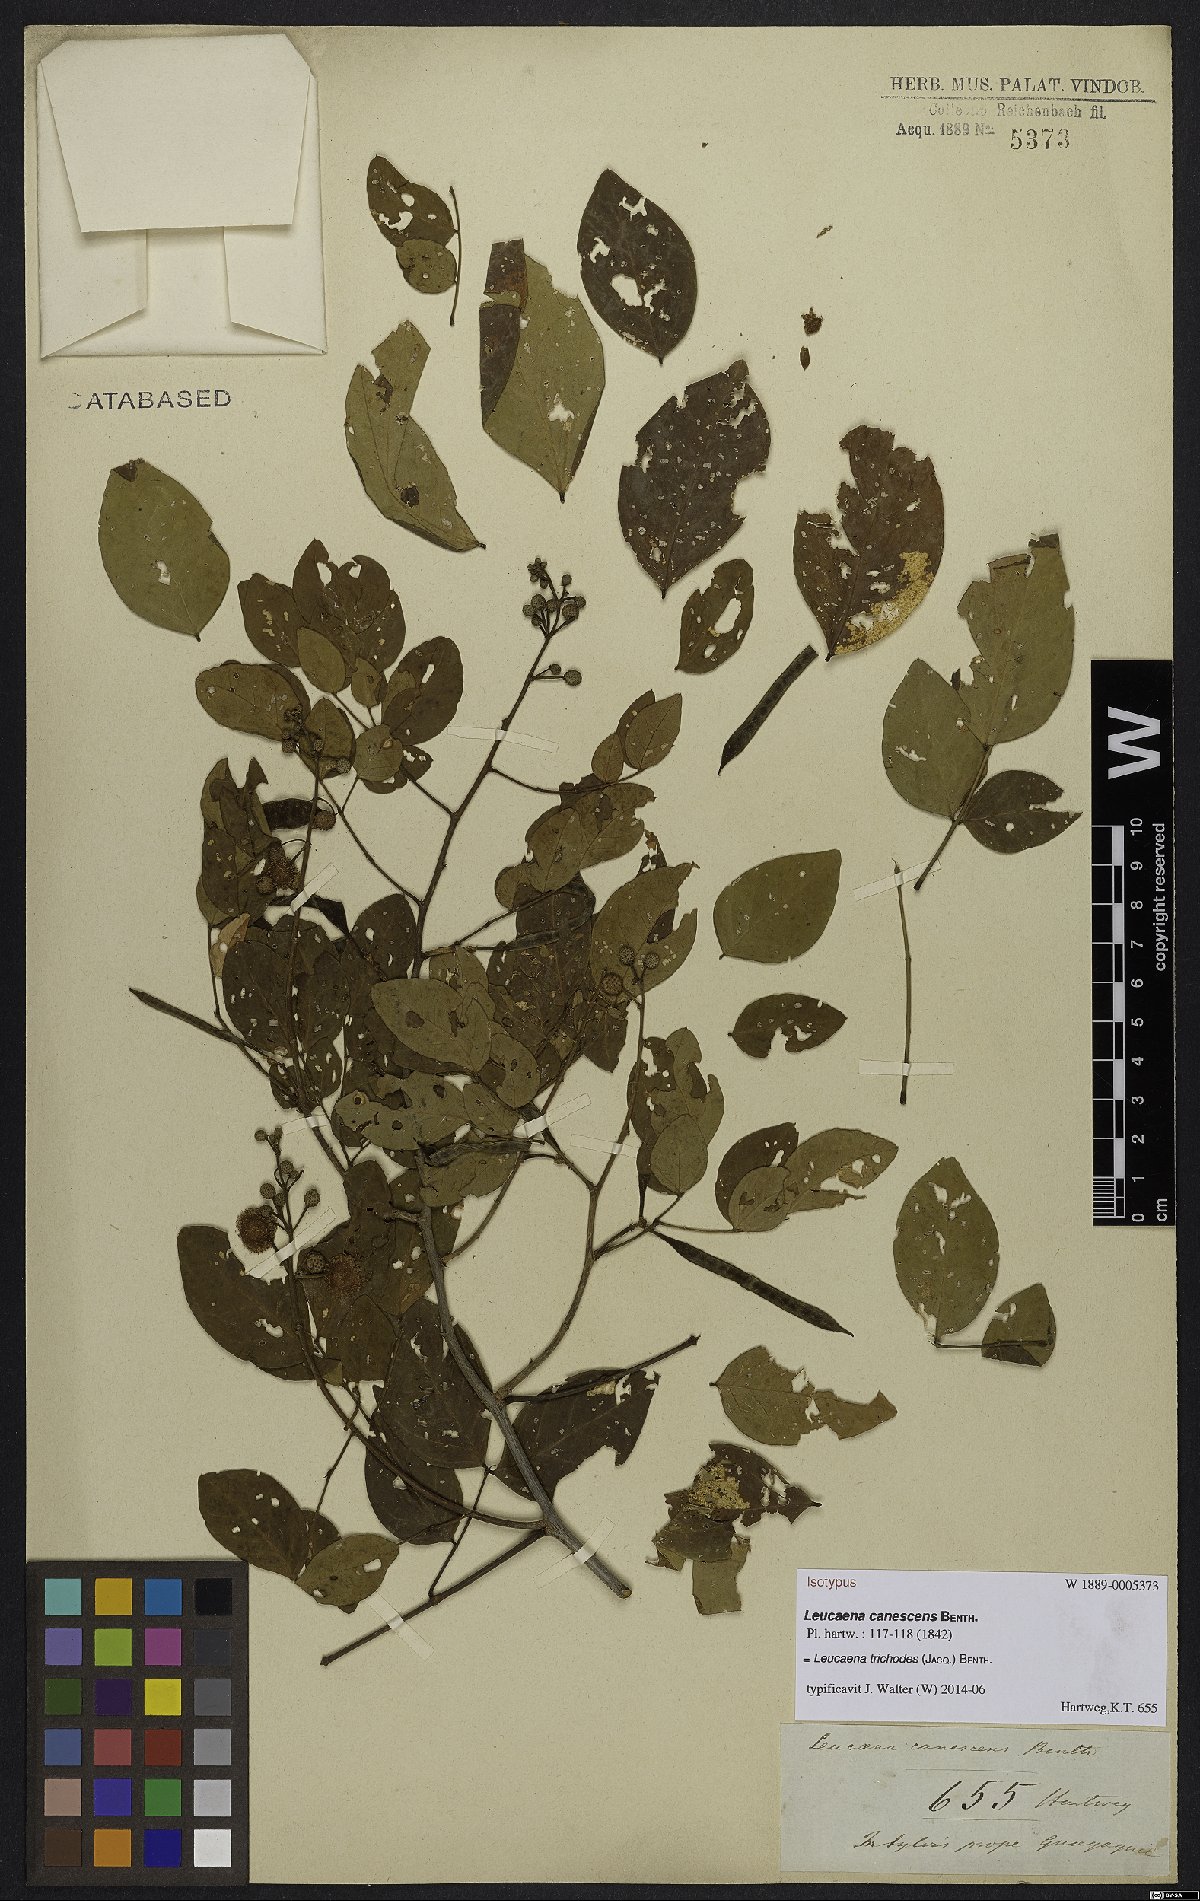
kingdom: Plantae
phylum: Tracheophyta
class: Magnoliopsida
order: Fabales
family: Fabaceae
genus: Leucaena
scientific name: Leucaena trichodes
